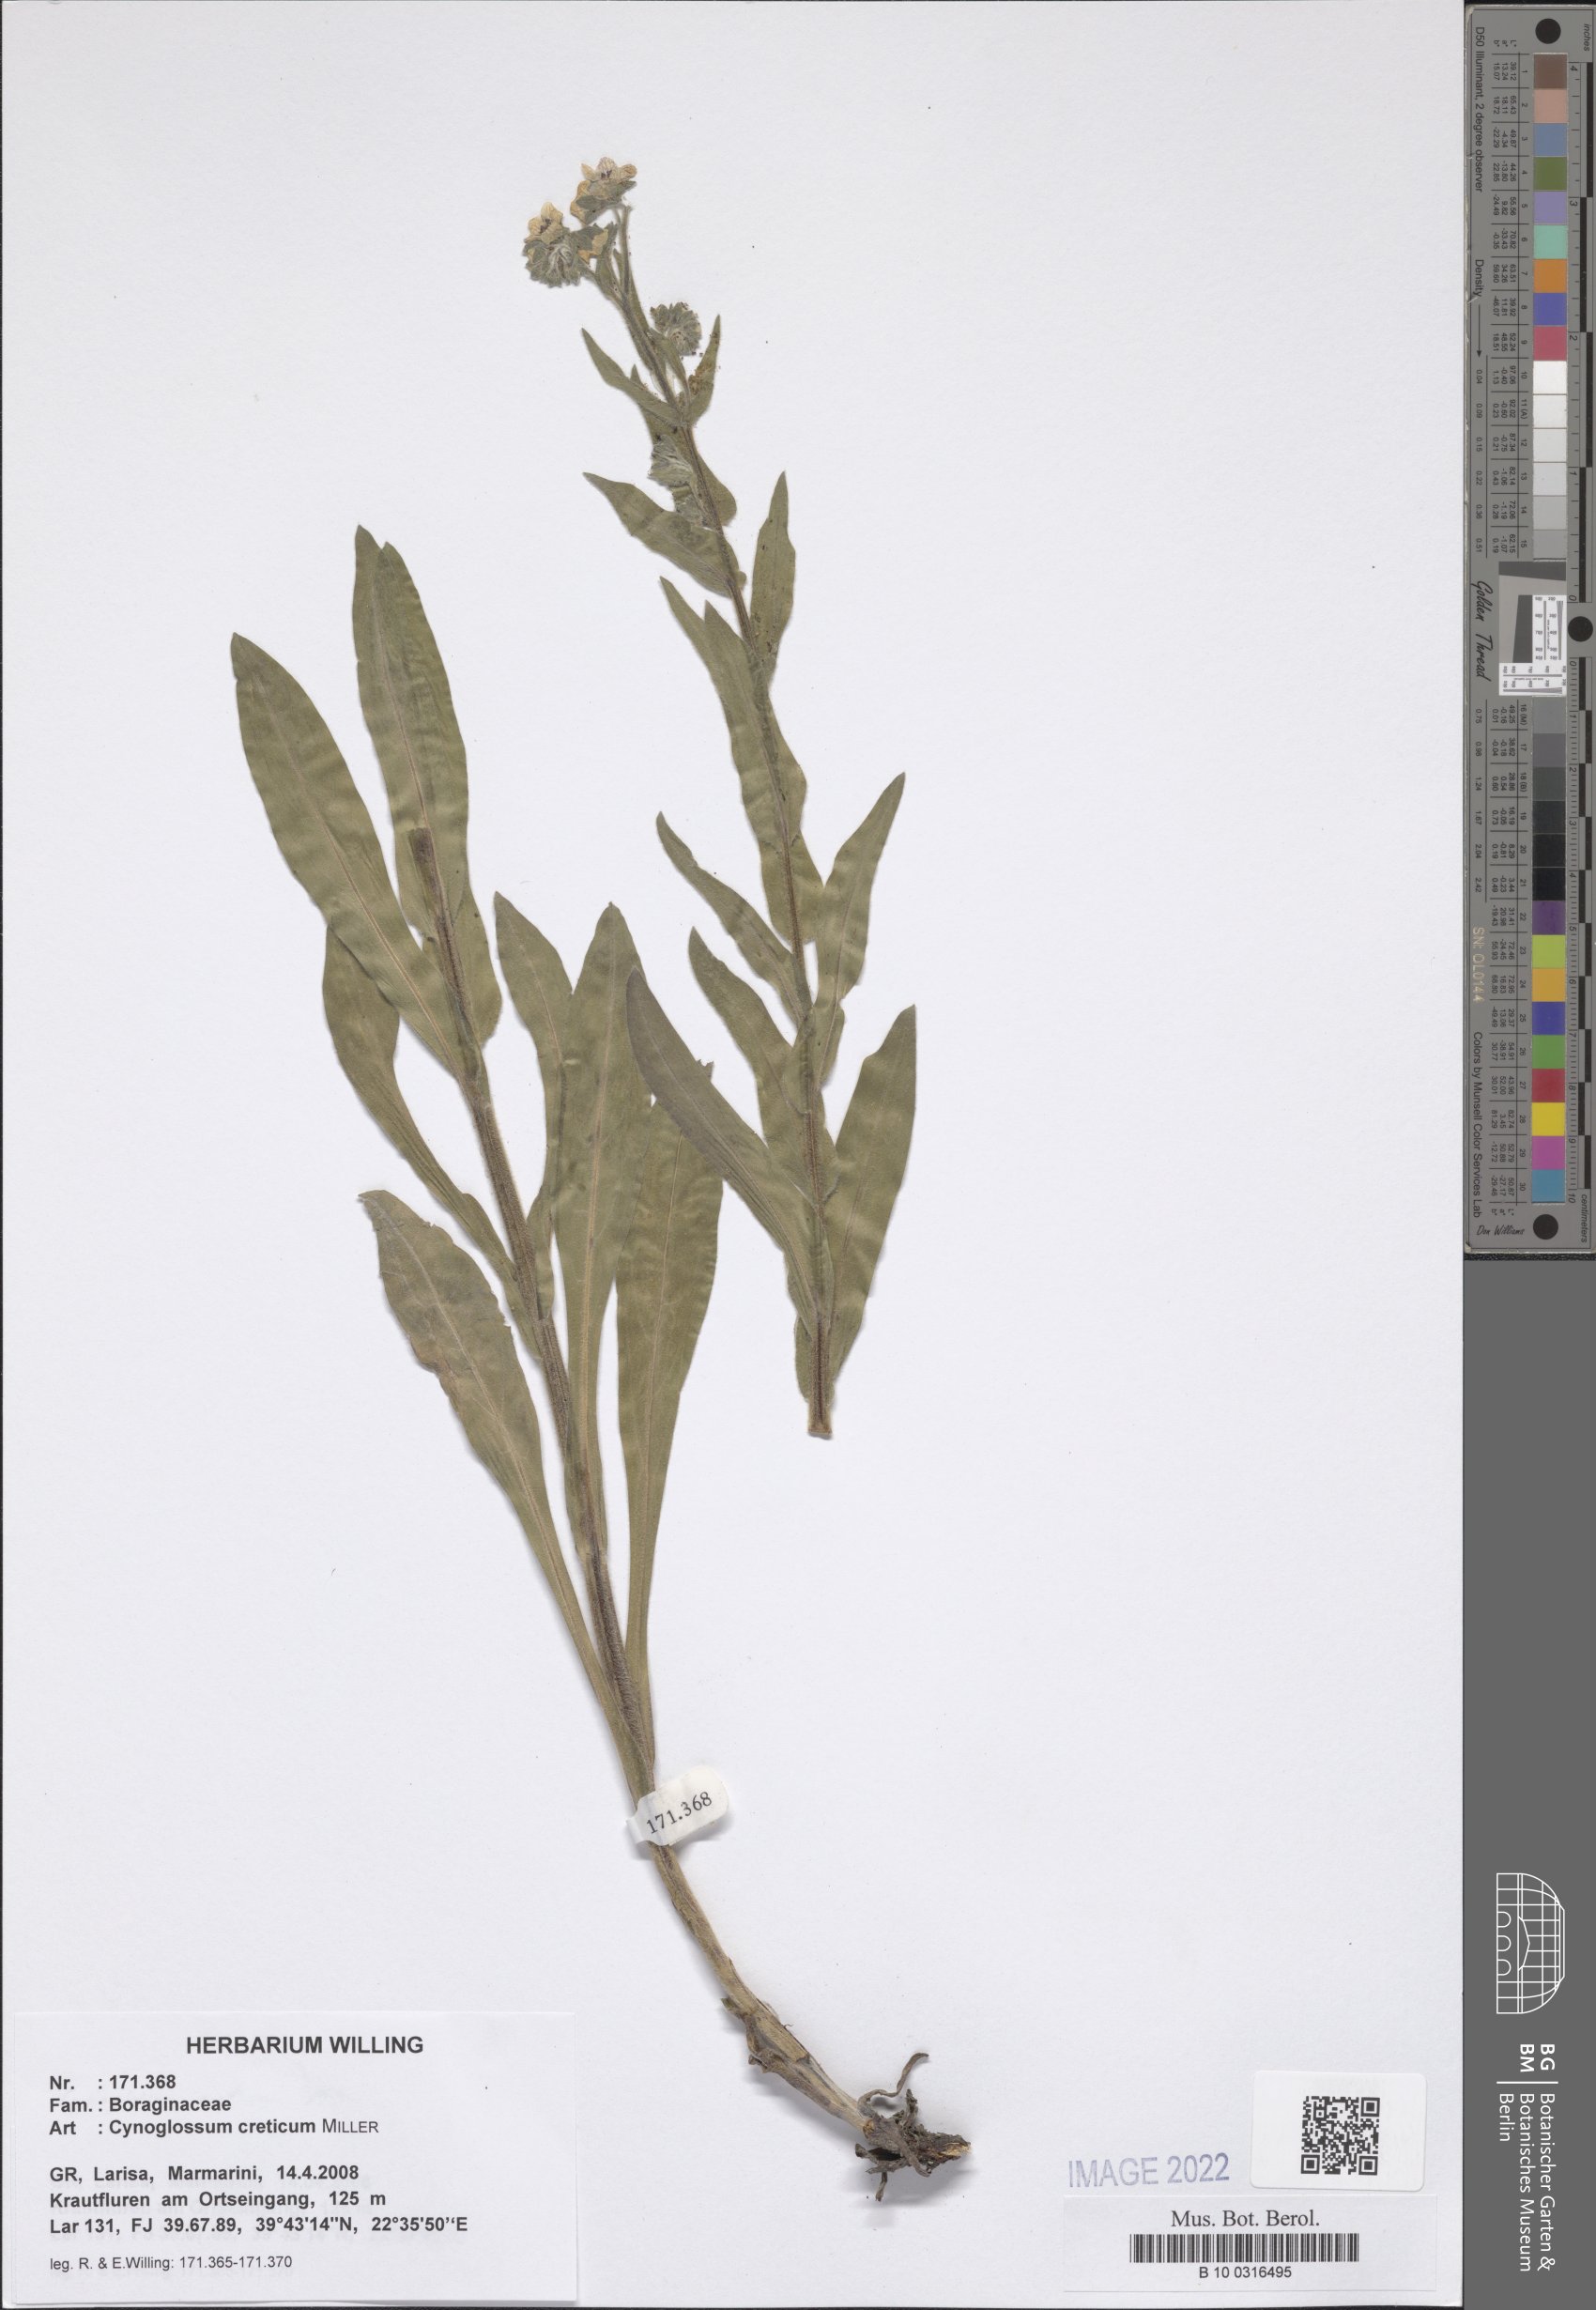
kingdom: Plantae
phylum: Tracheophyta
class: Magnoliopsida
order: Boraginales
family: Boraginaceae
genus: Cynoglossum
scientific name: Cynoglossum creticum
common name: Blue hound's tongue
